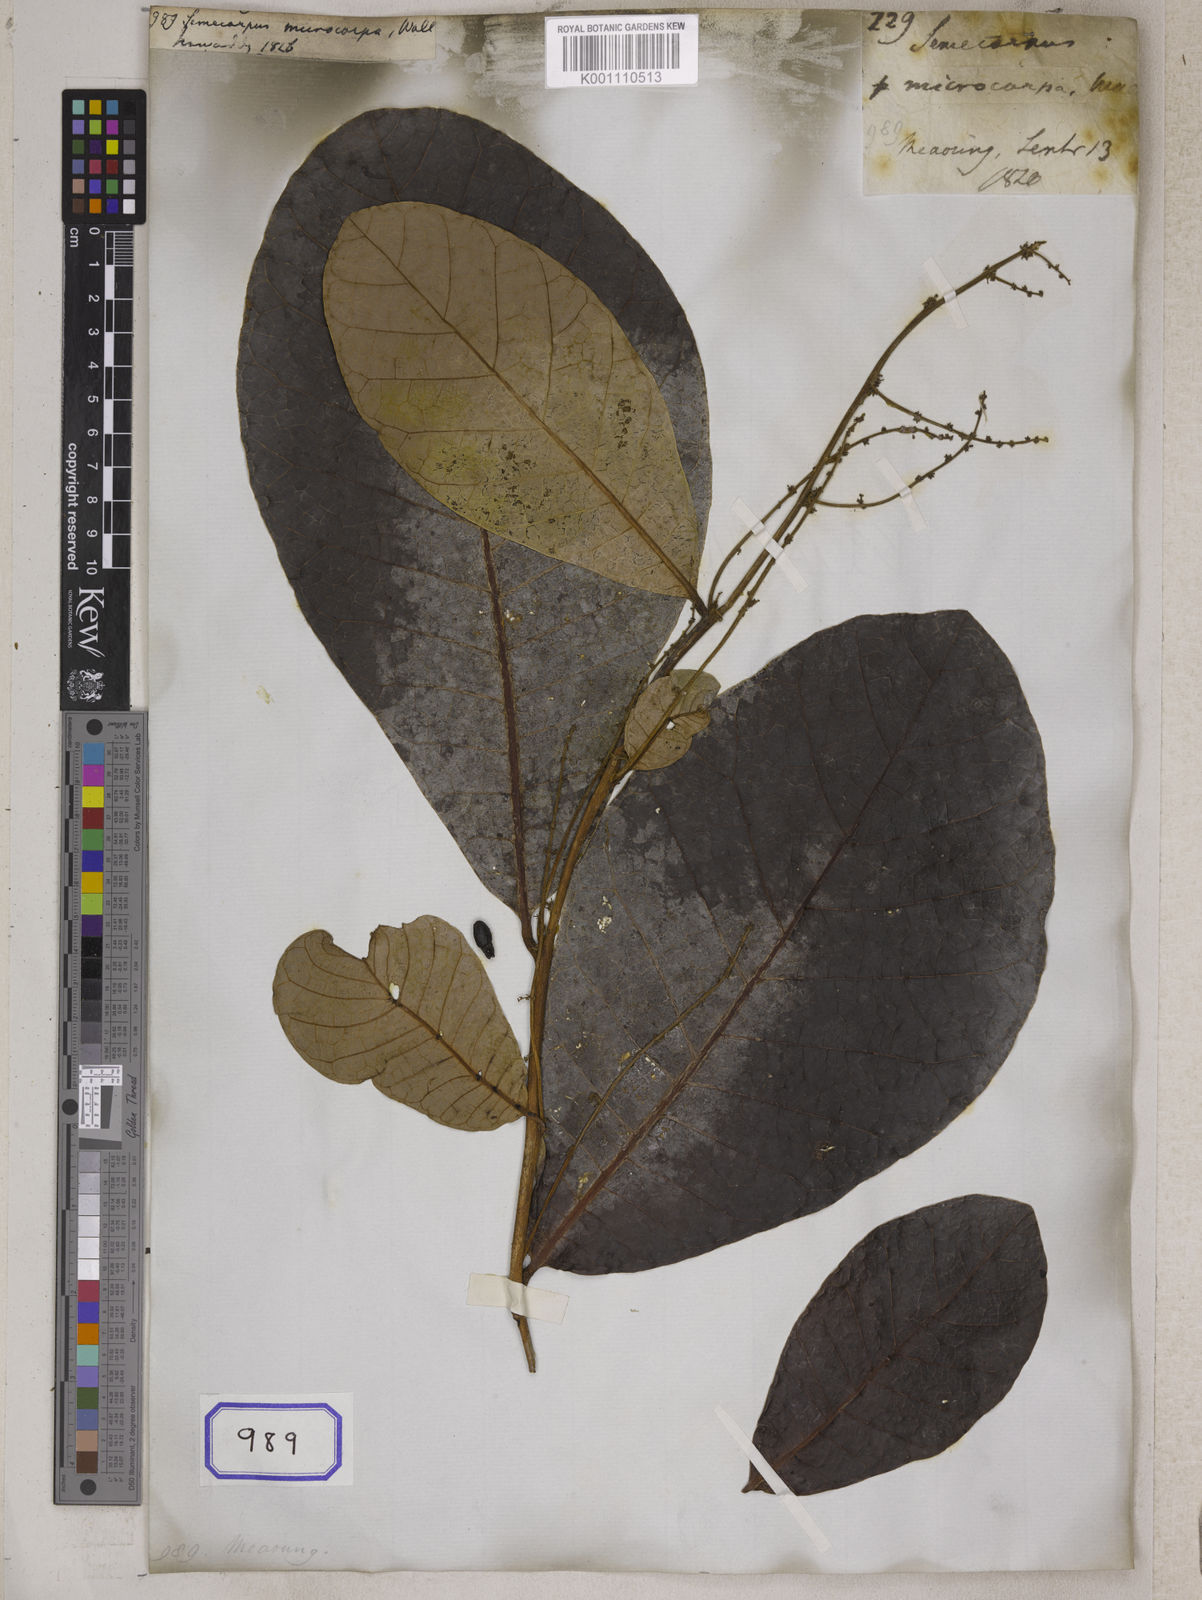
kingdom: Plantae
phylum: Tracheophyta
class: Magnoliopsida
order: Sapindales
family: Anacardiaceae
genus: Semecarpus
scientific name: Semecarpus
